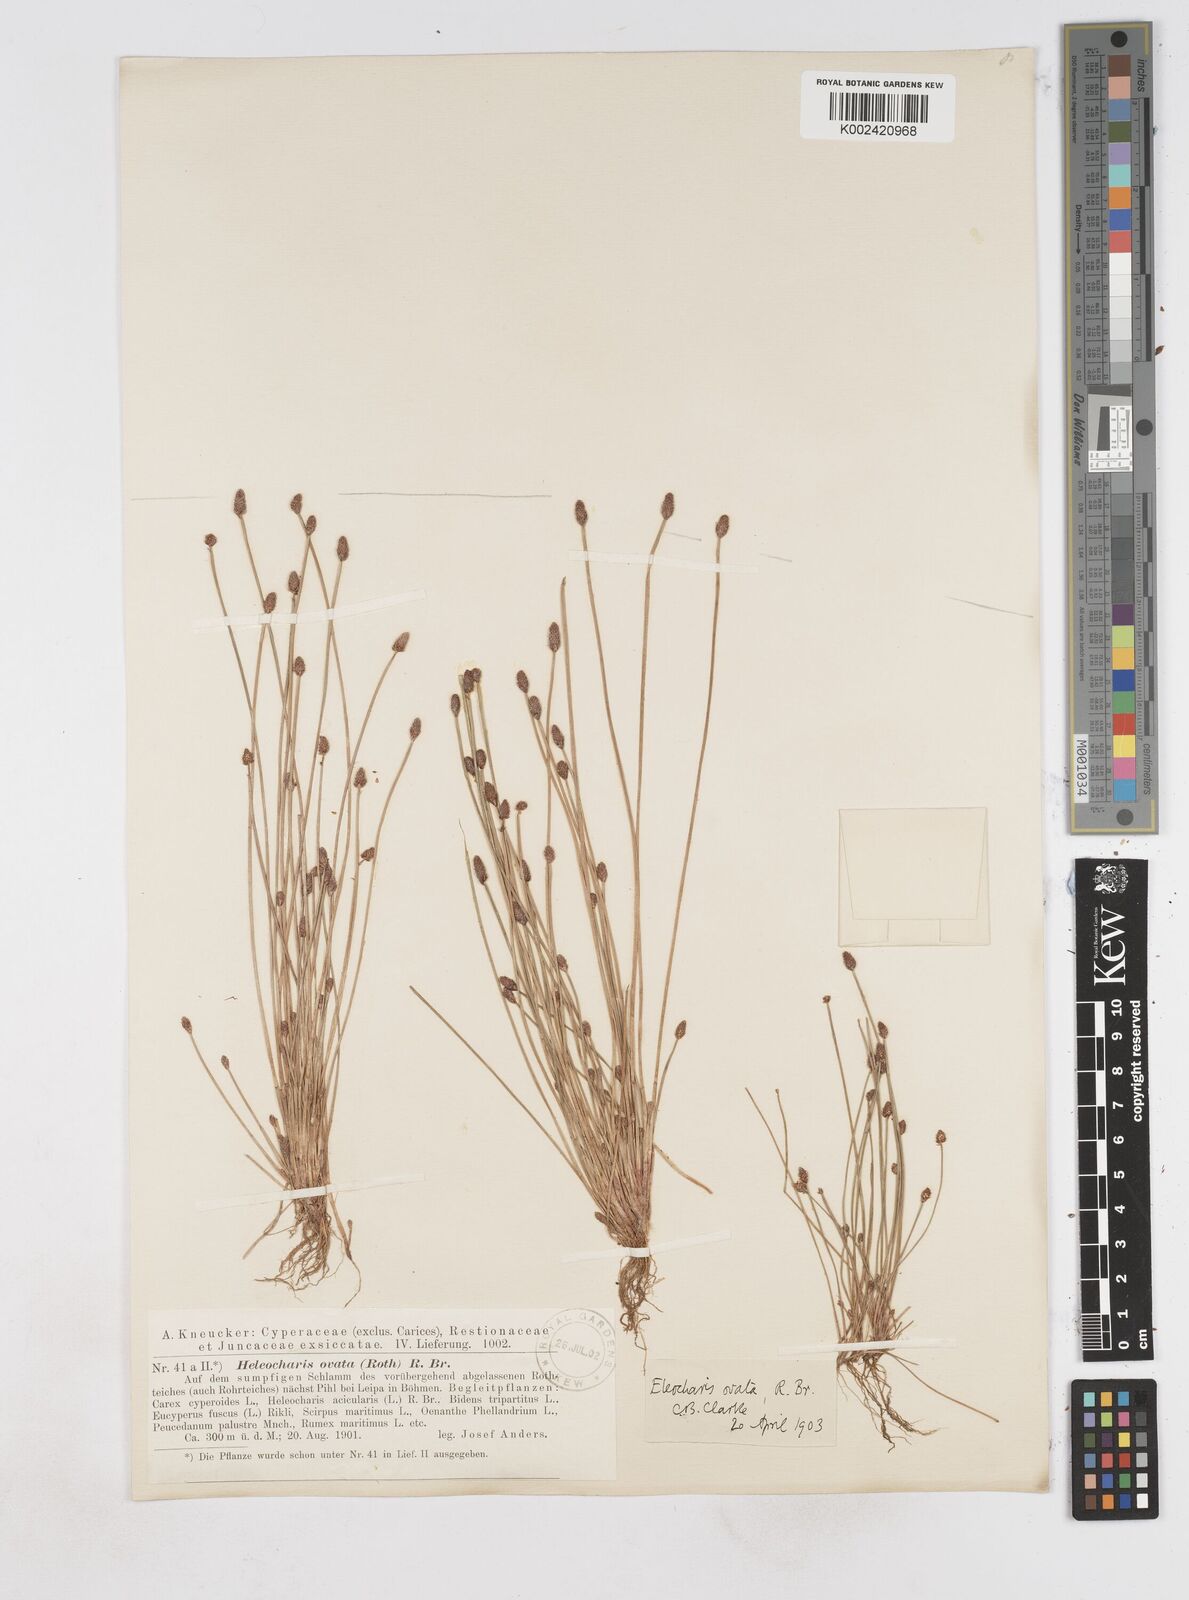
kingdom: Plantae
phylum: Tracheophyta
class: Liliopsida
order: Poales
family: Cyperaceae
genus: Eleocharis
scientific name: Eleocharis ovata
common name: Oval spike-rush
